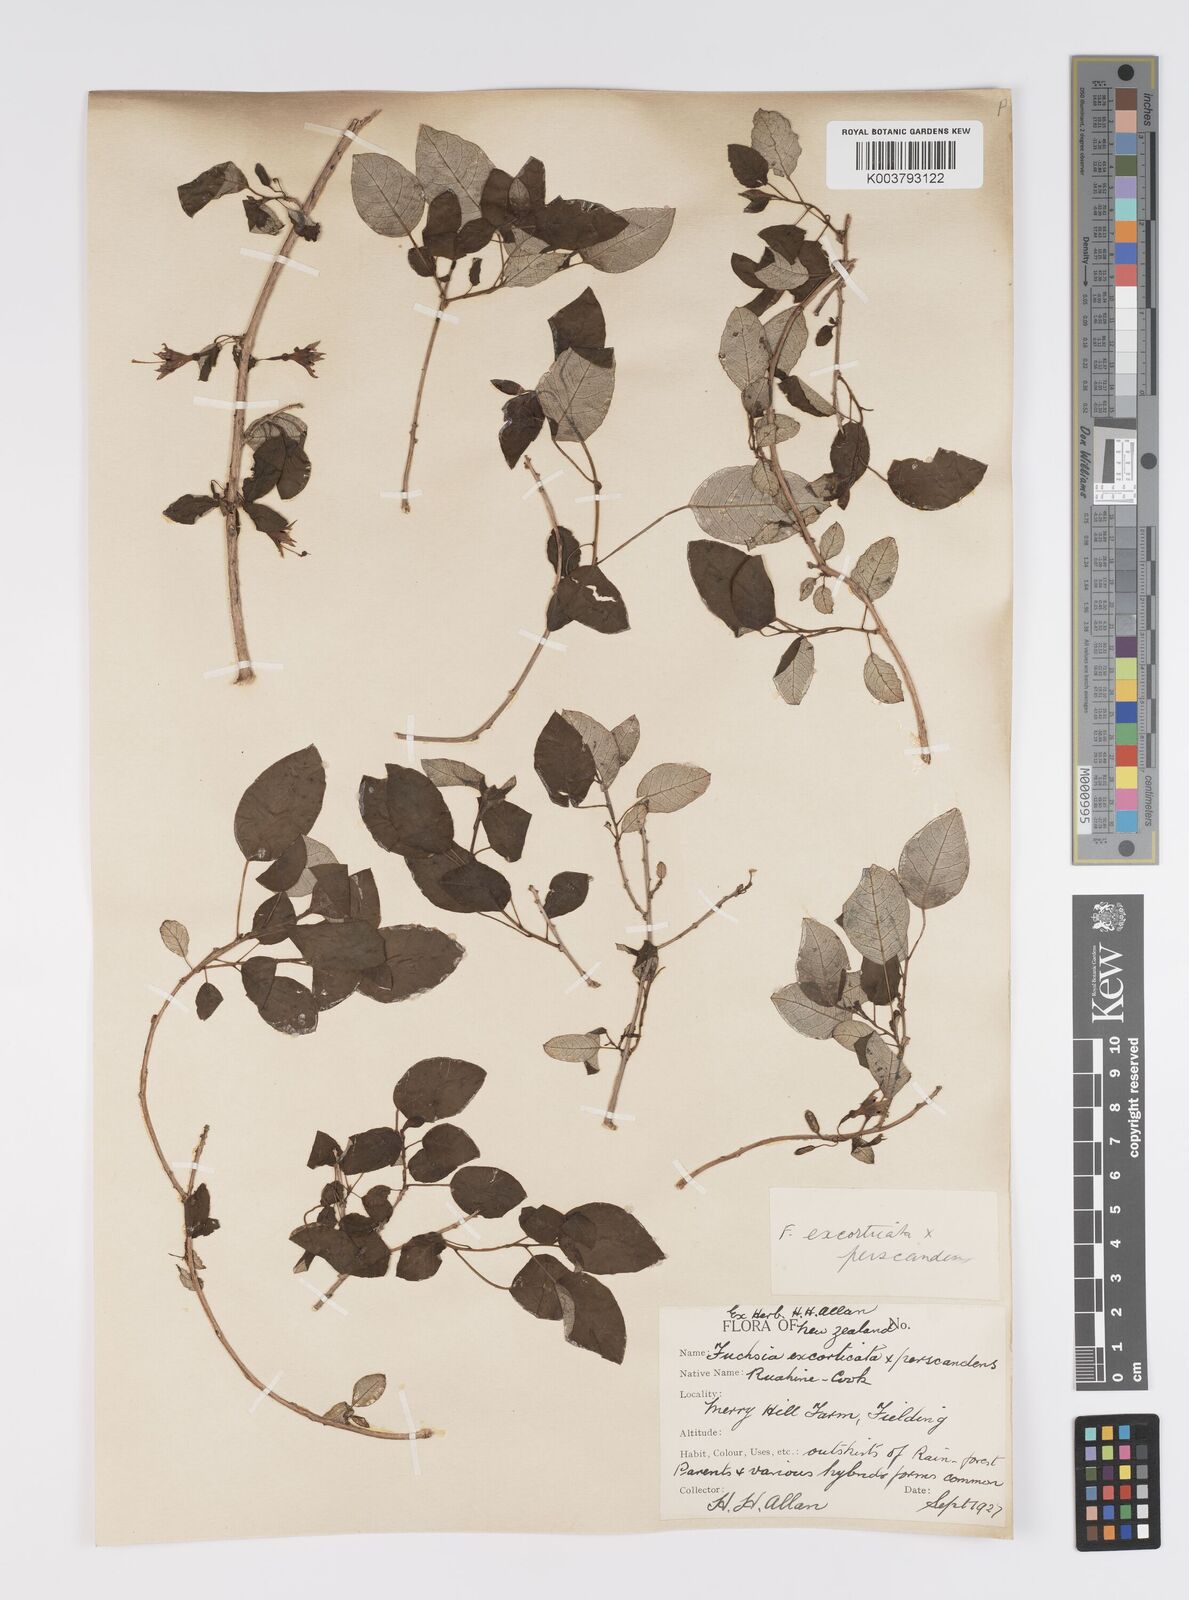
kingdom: Plantae
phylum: Tracheophyta
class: Magnoliopsida
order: Myrtales
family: Onagraceae
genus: Fuchsia
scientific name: Fuchsia excorticata
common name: Tree fuchsia
